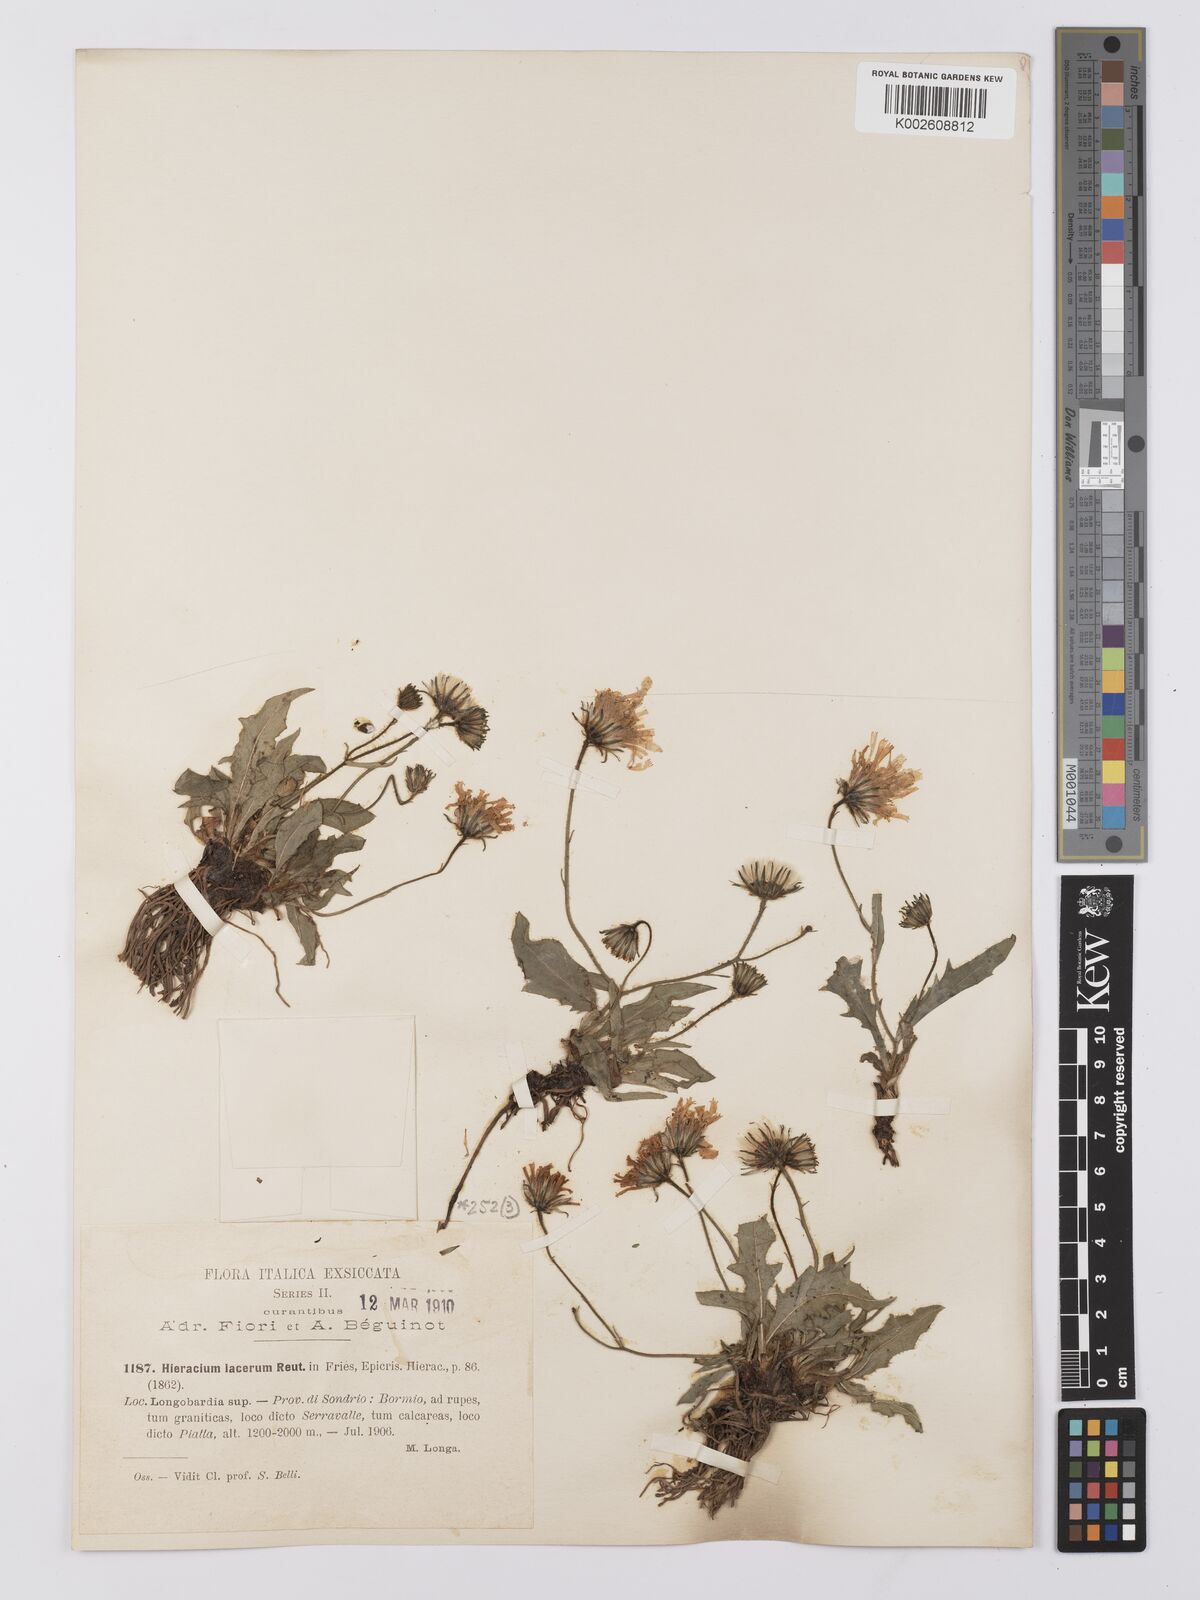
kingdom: Plantae
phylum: Tracheophyta
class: Magnoliopsida
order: Asterales
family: Asteraceae
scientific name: Asteraceae
